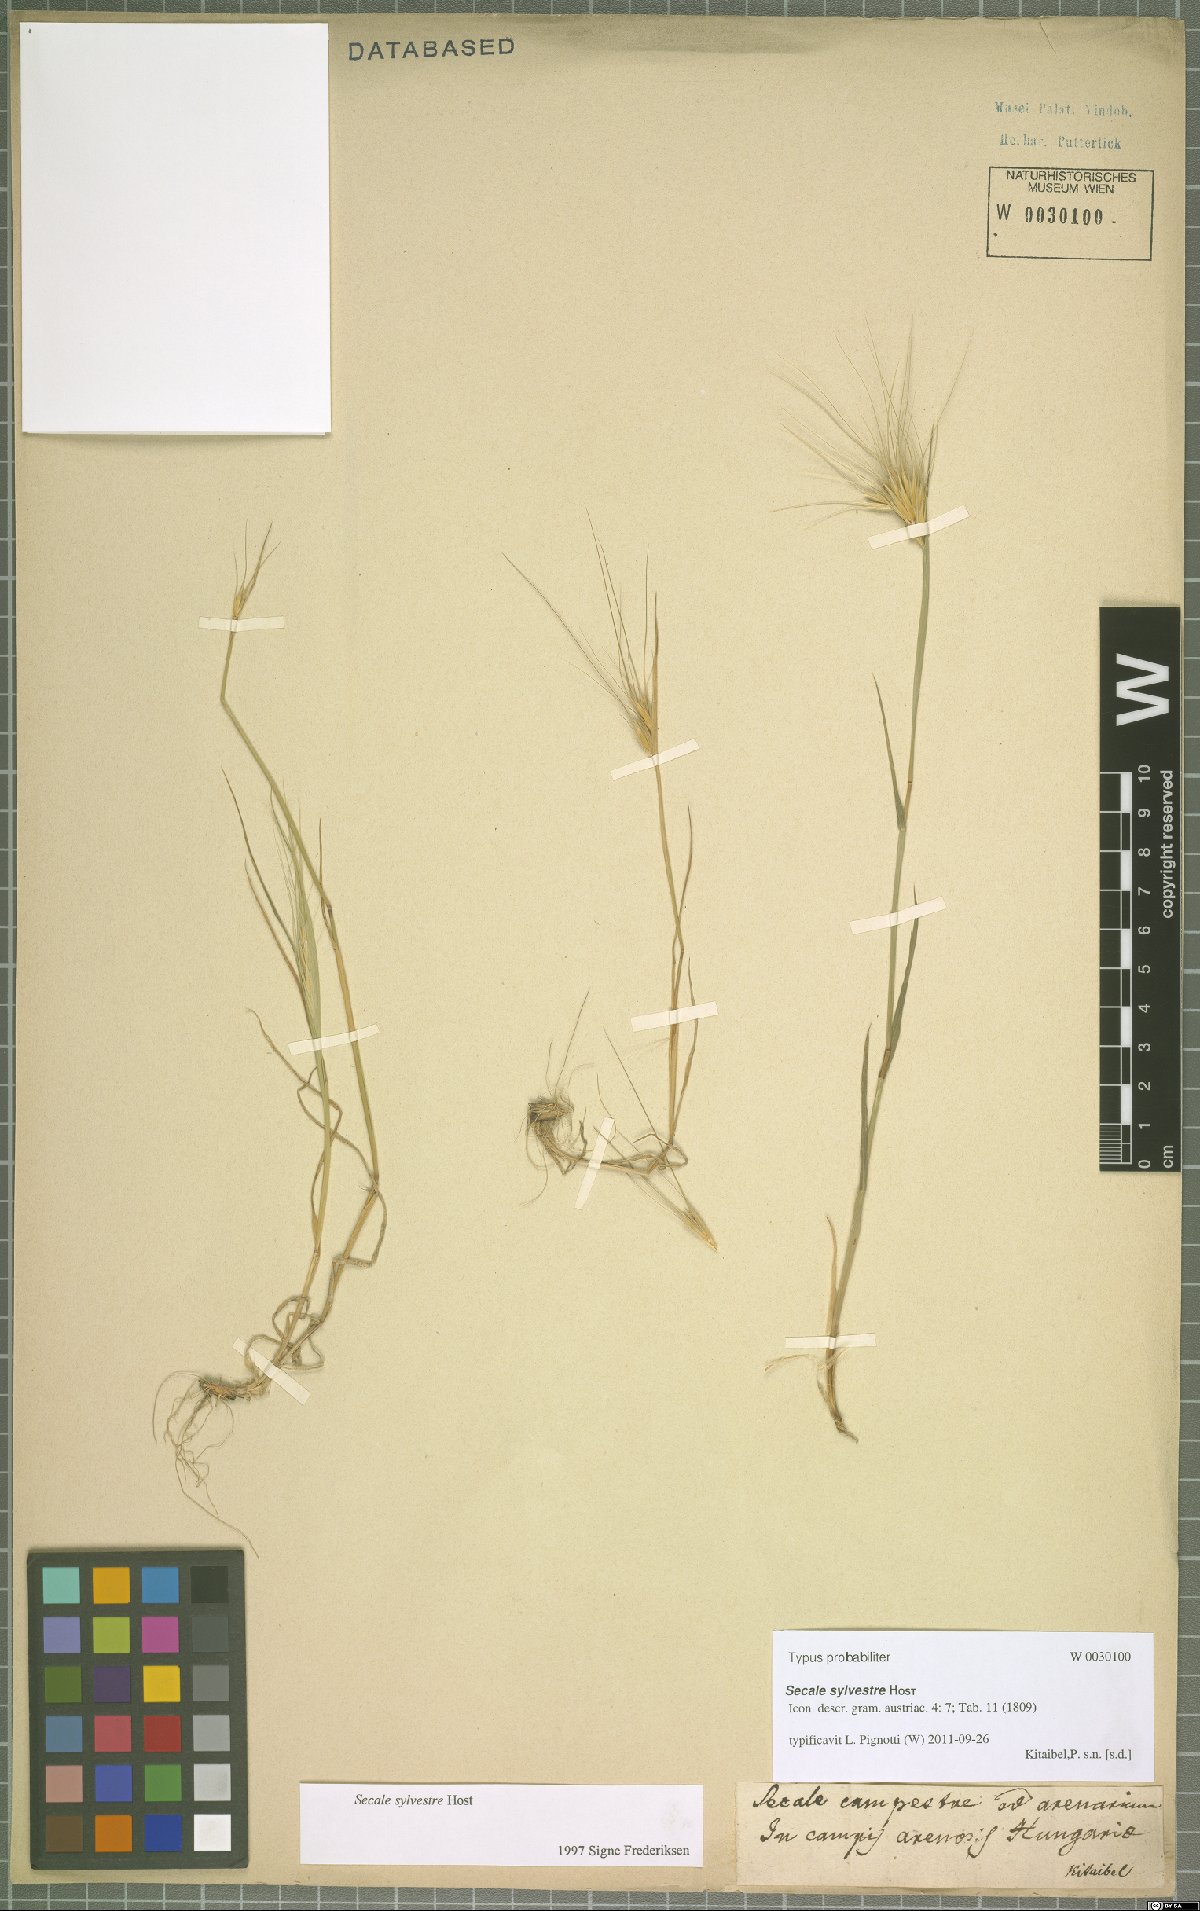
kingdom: Plantae
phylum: Tracheophyta
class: Liliopsida
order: Poales
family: Poaceae
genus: Secale
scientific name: Secale sylvestre
